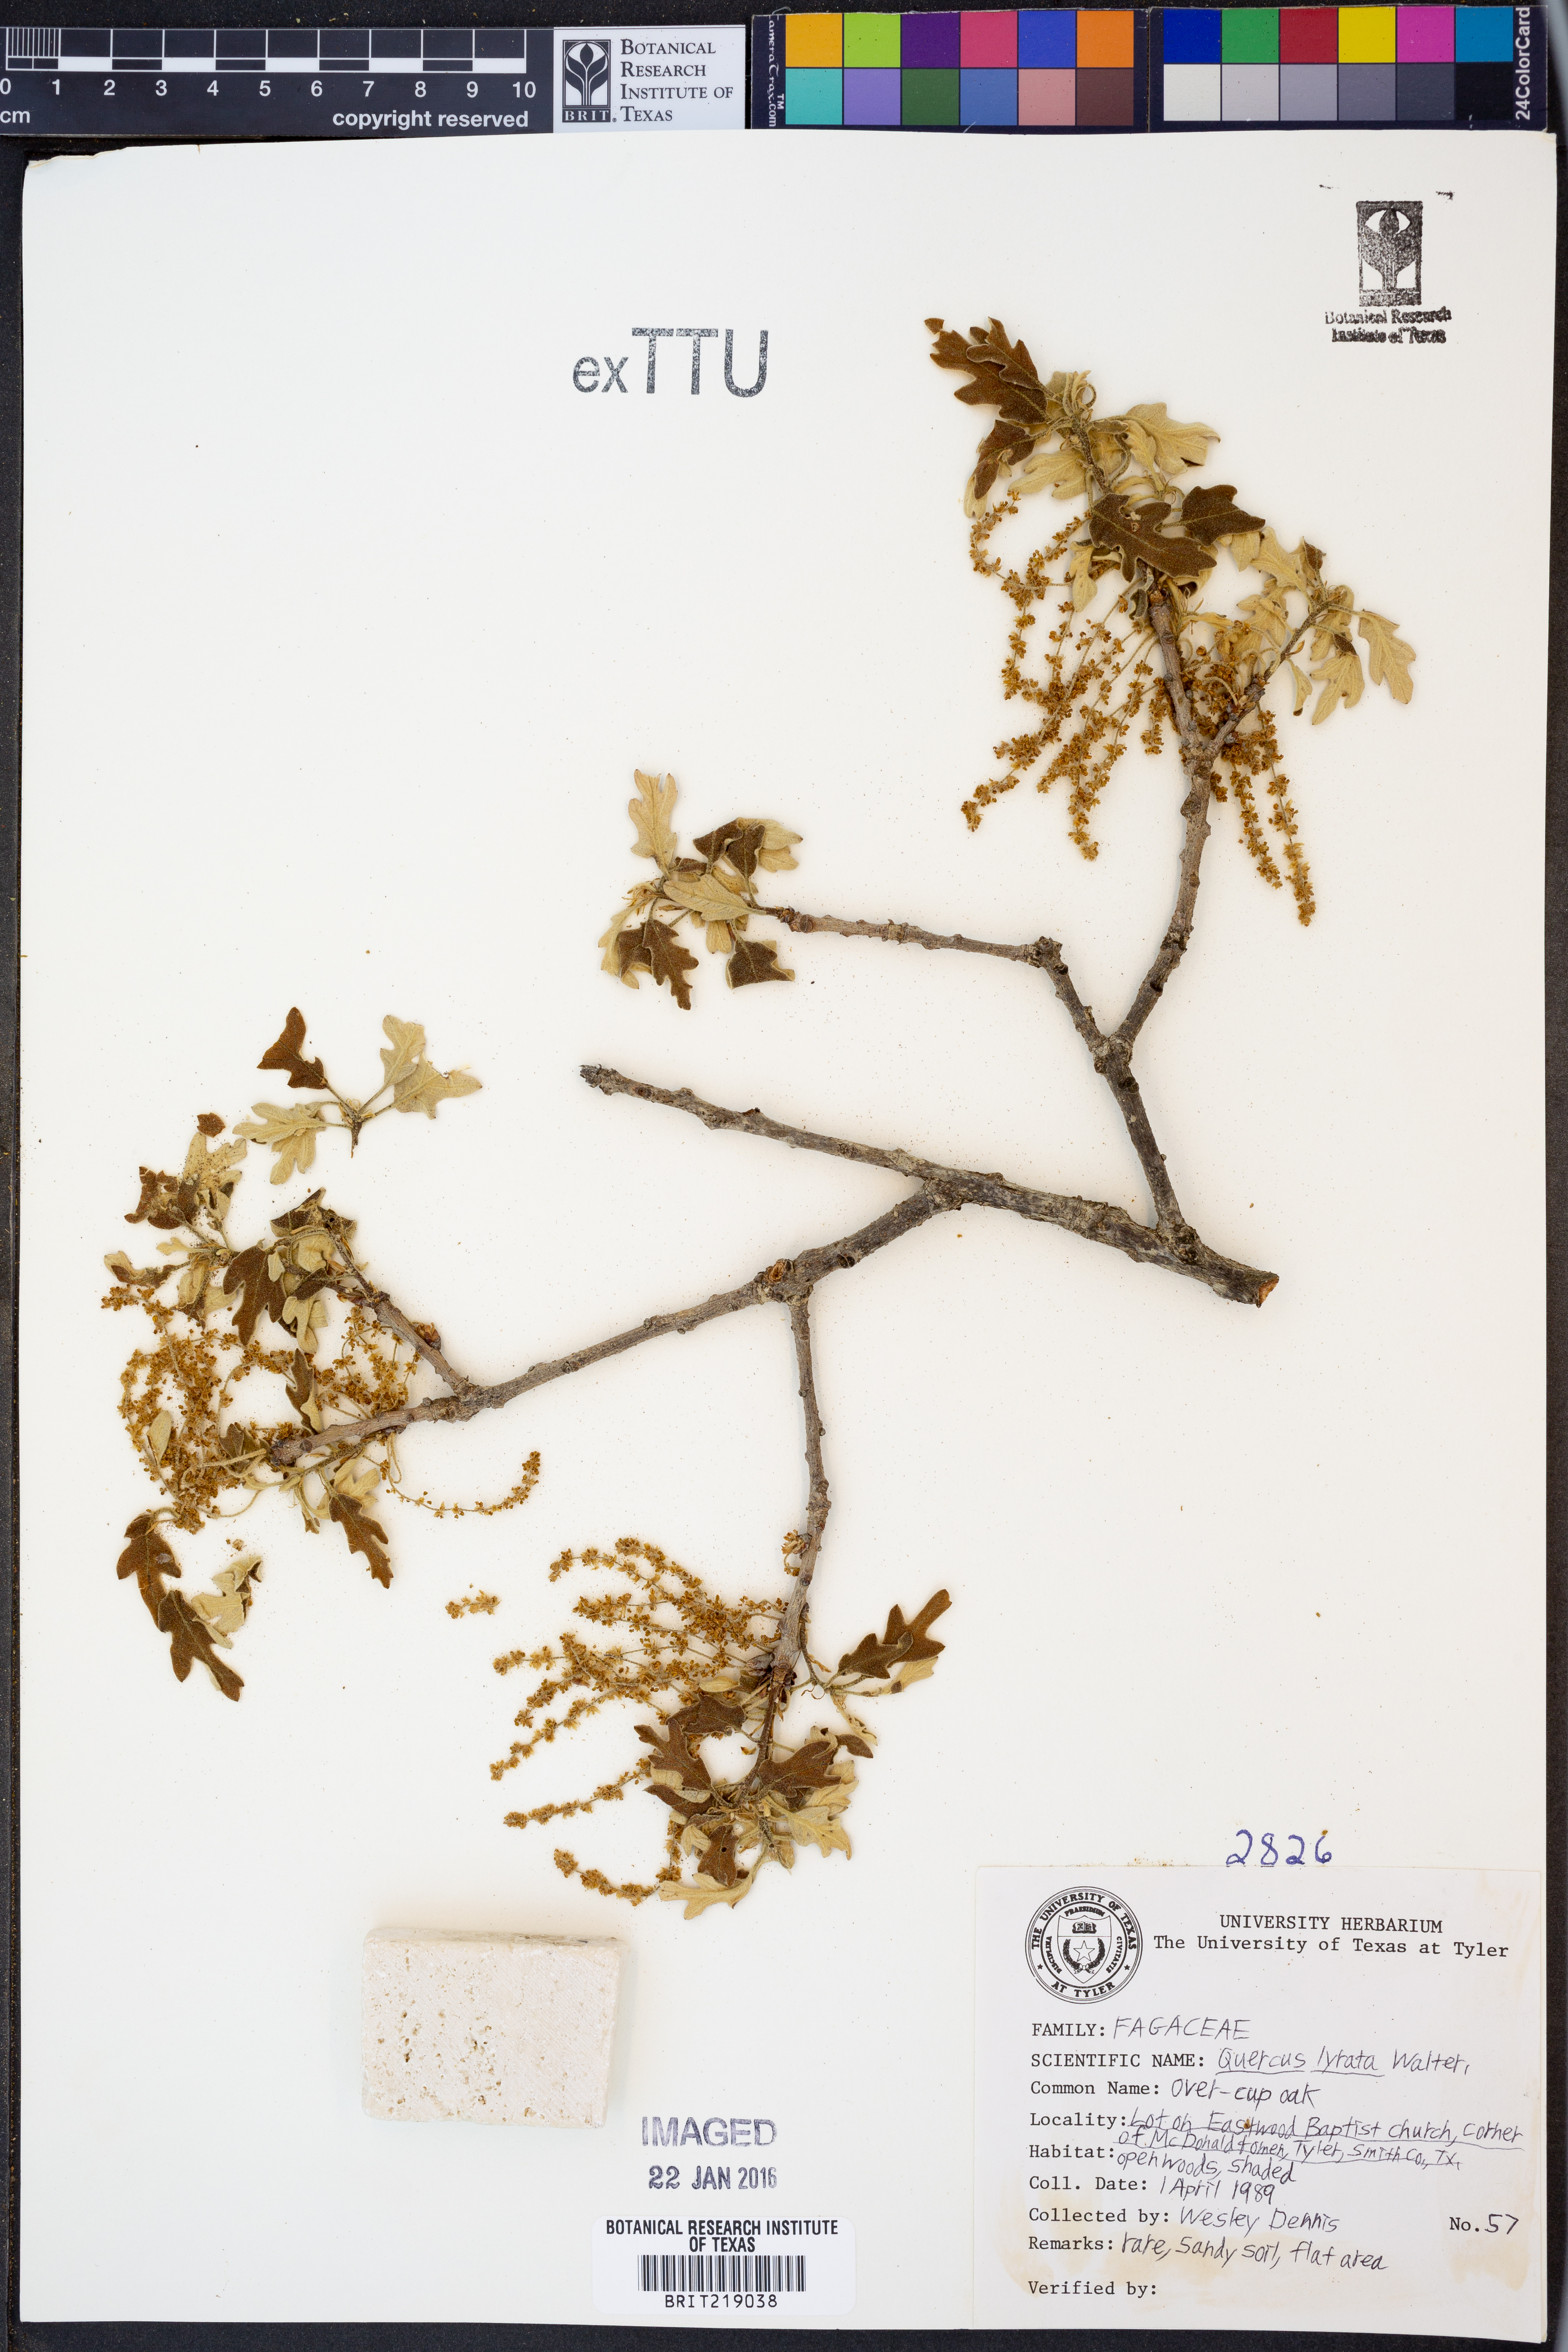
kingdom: Plantae
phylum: Tracheophyta
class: Magnoliopsida
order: Fagales
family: Fagaceae
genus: Quercus
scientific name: Quercus lyrata
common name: Overcup oak
